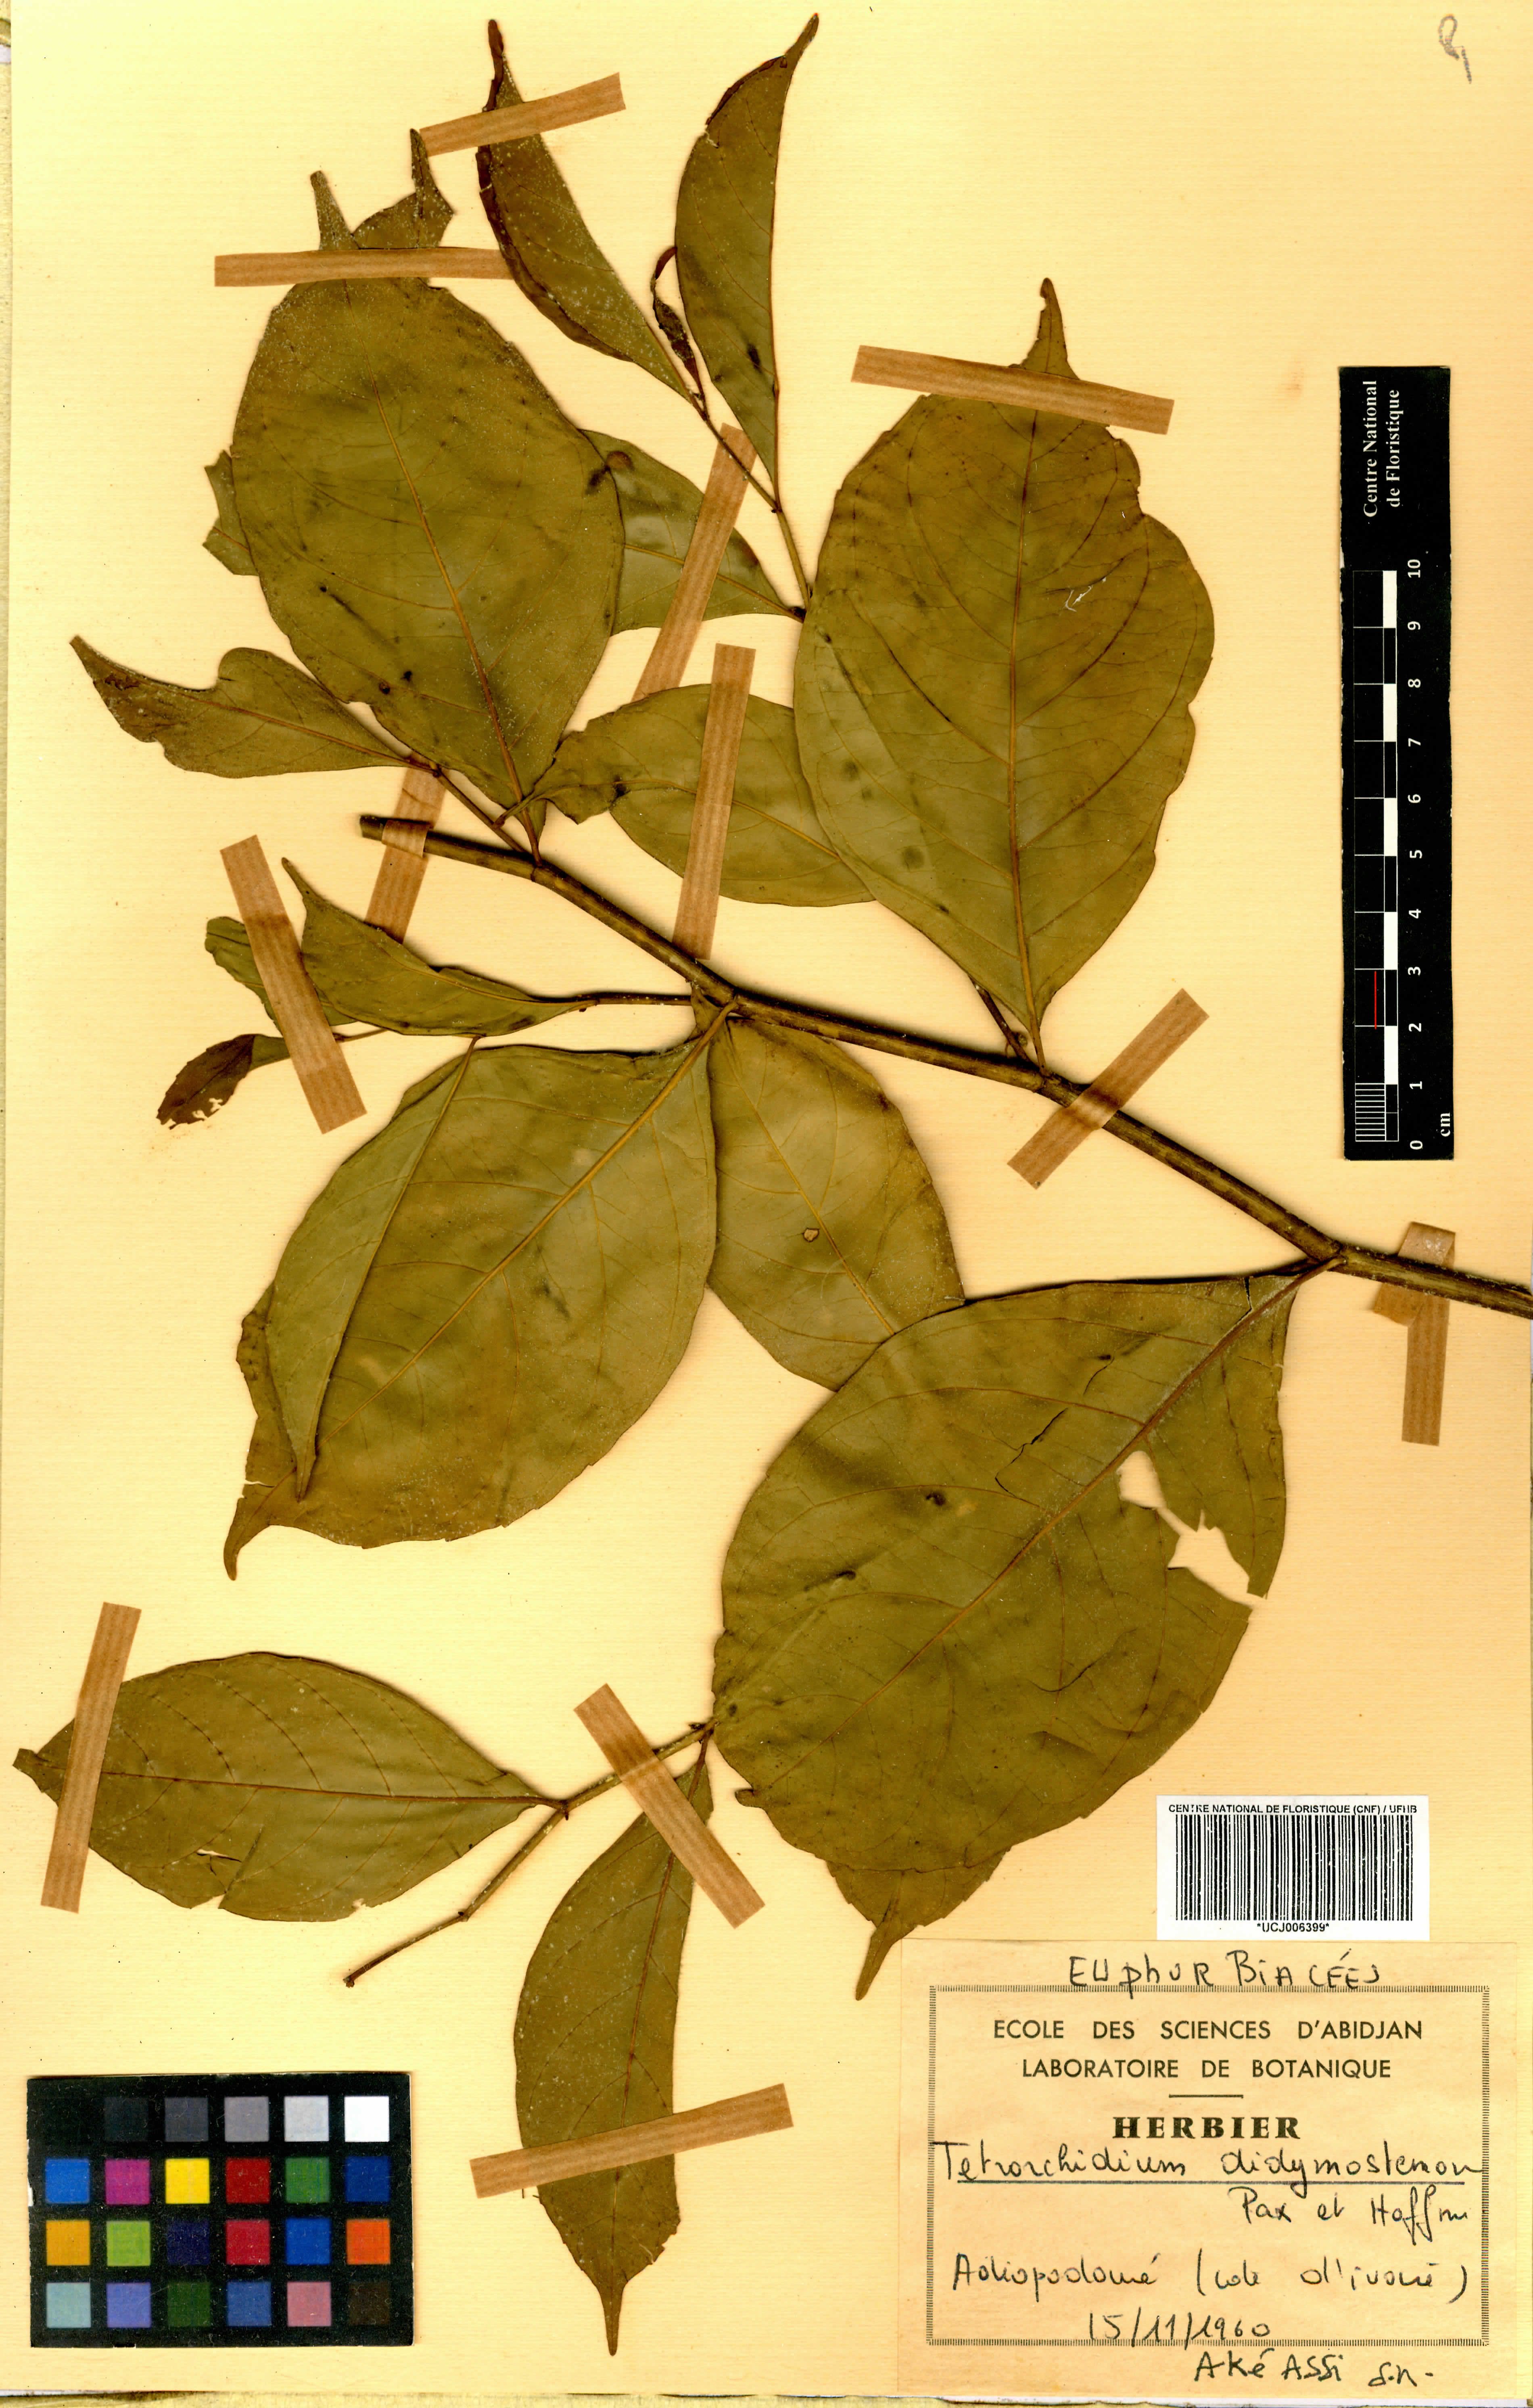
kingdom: Plantae
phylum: Tracheophyta
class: Magnoliopsida
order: Malpighiales
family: Euphorbiaceae
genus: Tetrorchidium
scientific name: Tetrorchidium didymostemon
